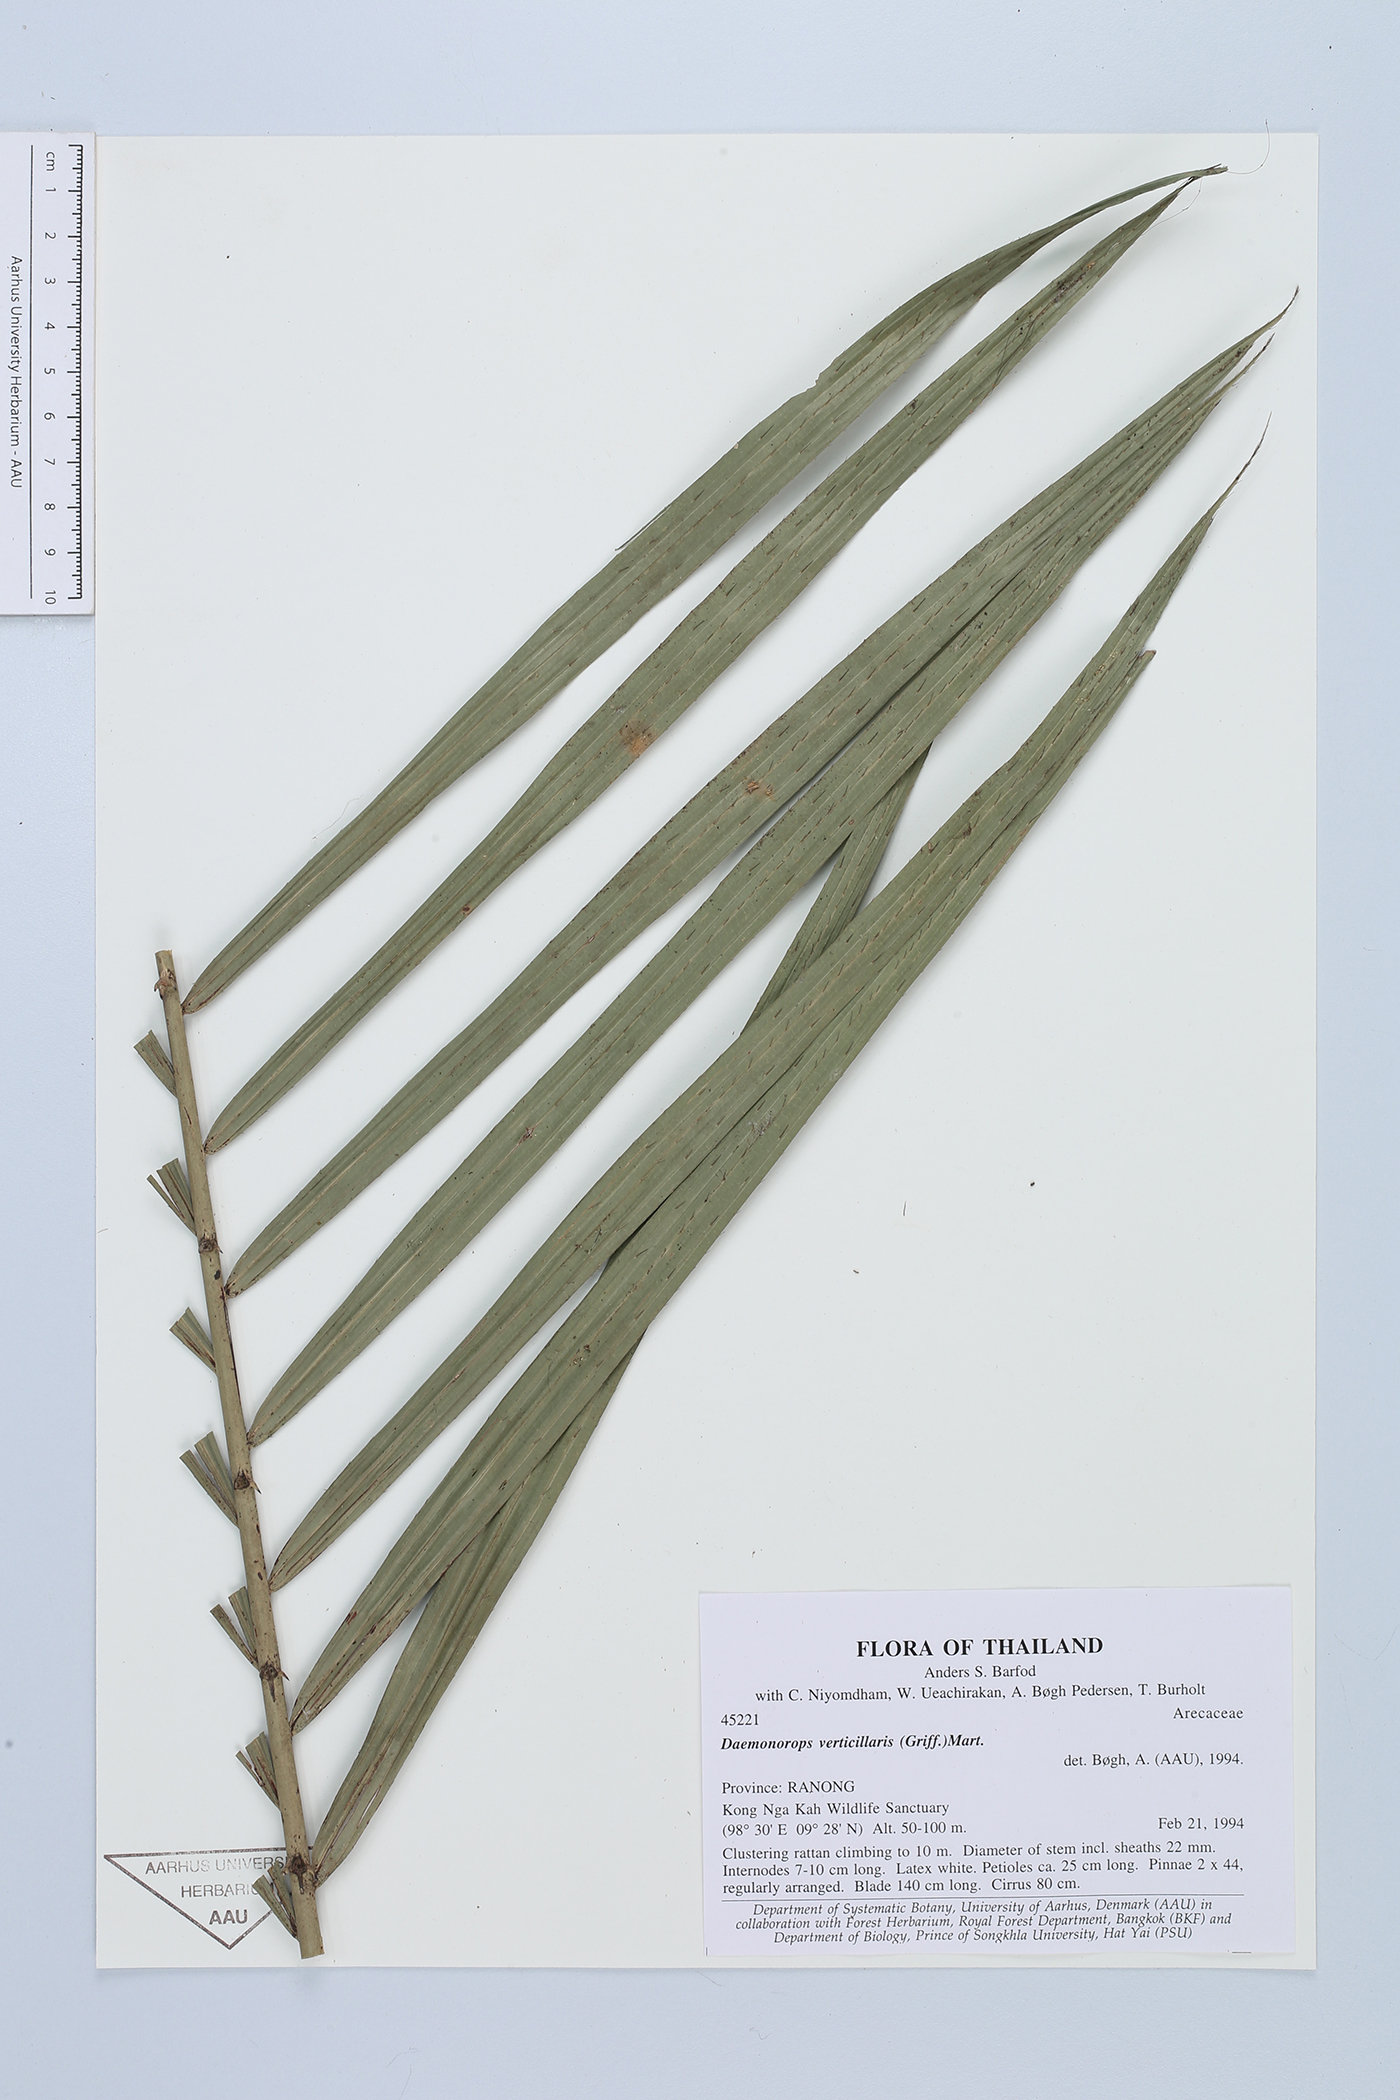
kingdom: Plantae
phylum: Tracheophyta
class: Liliopsida
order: Arecales
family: Arecaceae
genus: Calamus
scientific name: Calamus verticillaris
